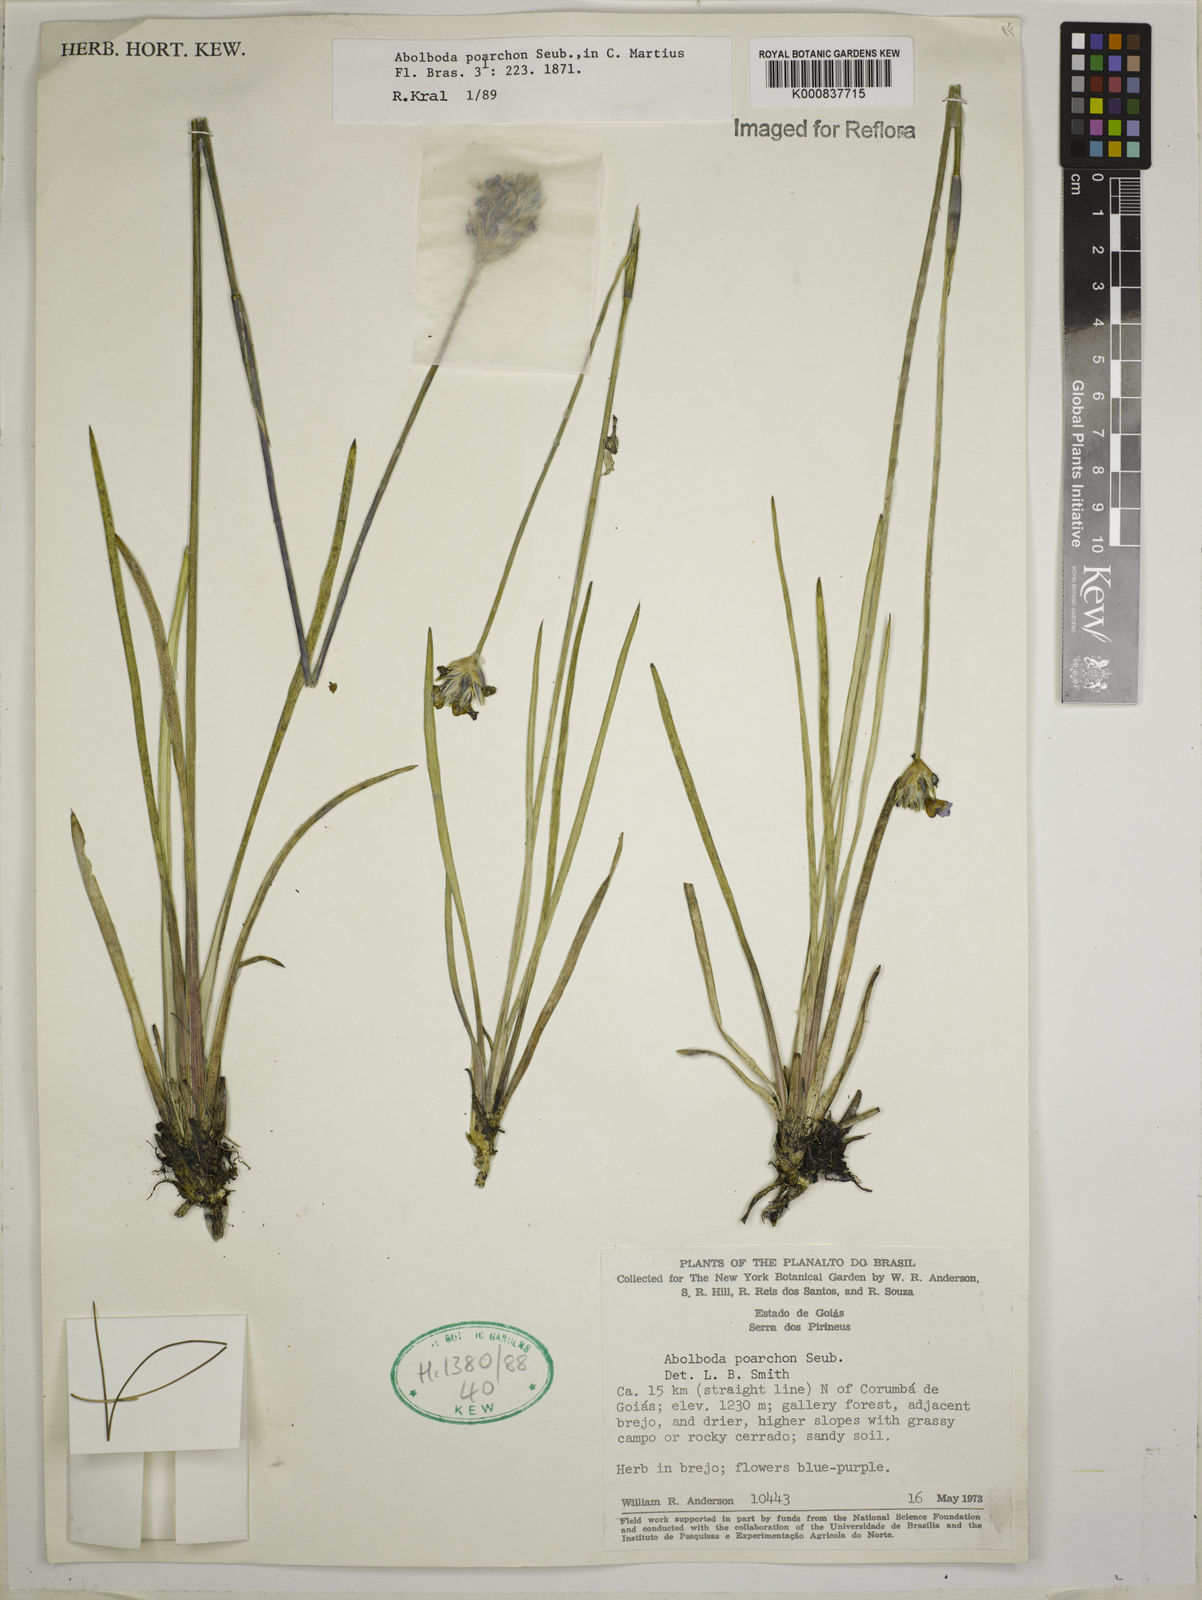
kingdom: Plantae
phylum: Tracheophyta
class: Liliopsida
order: Poales
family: Xyridaceae
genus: Abolboda
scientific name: Abolboda poarchon
